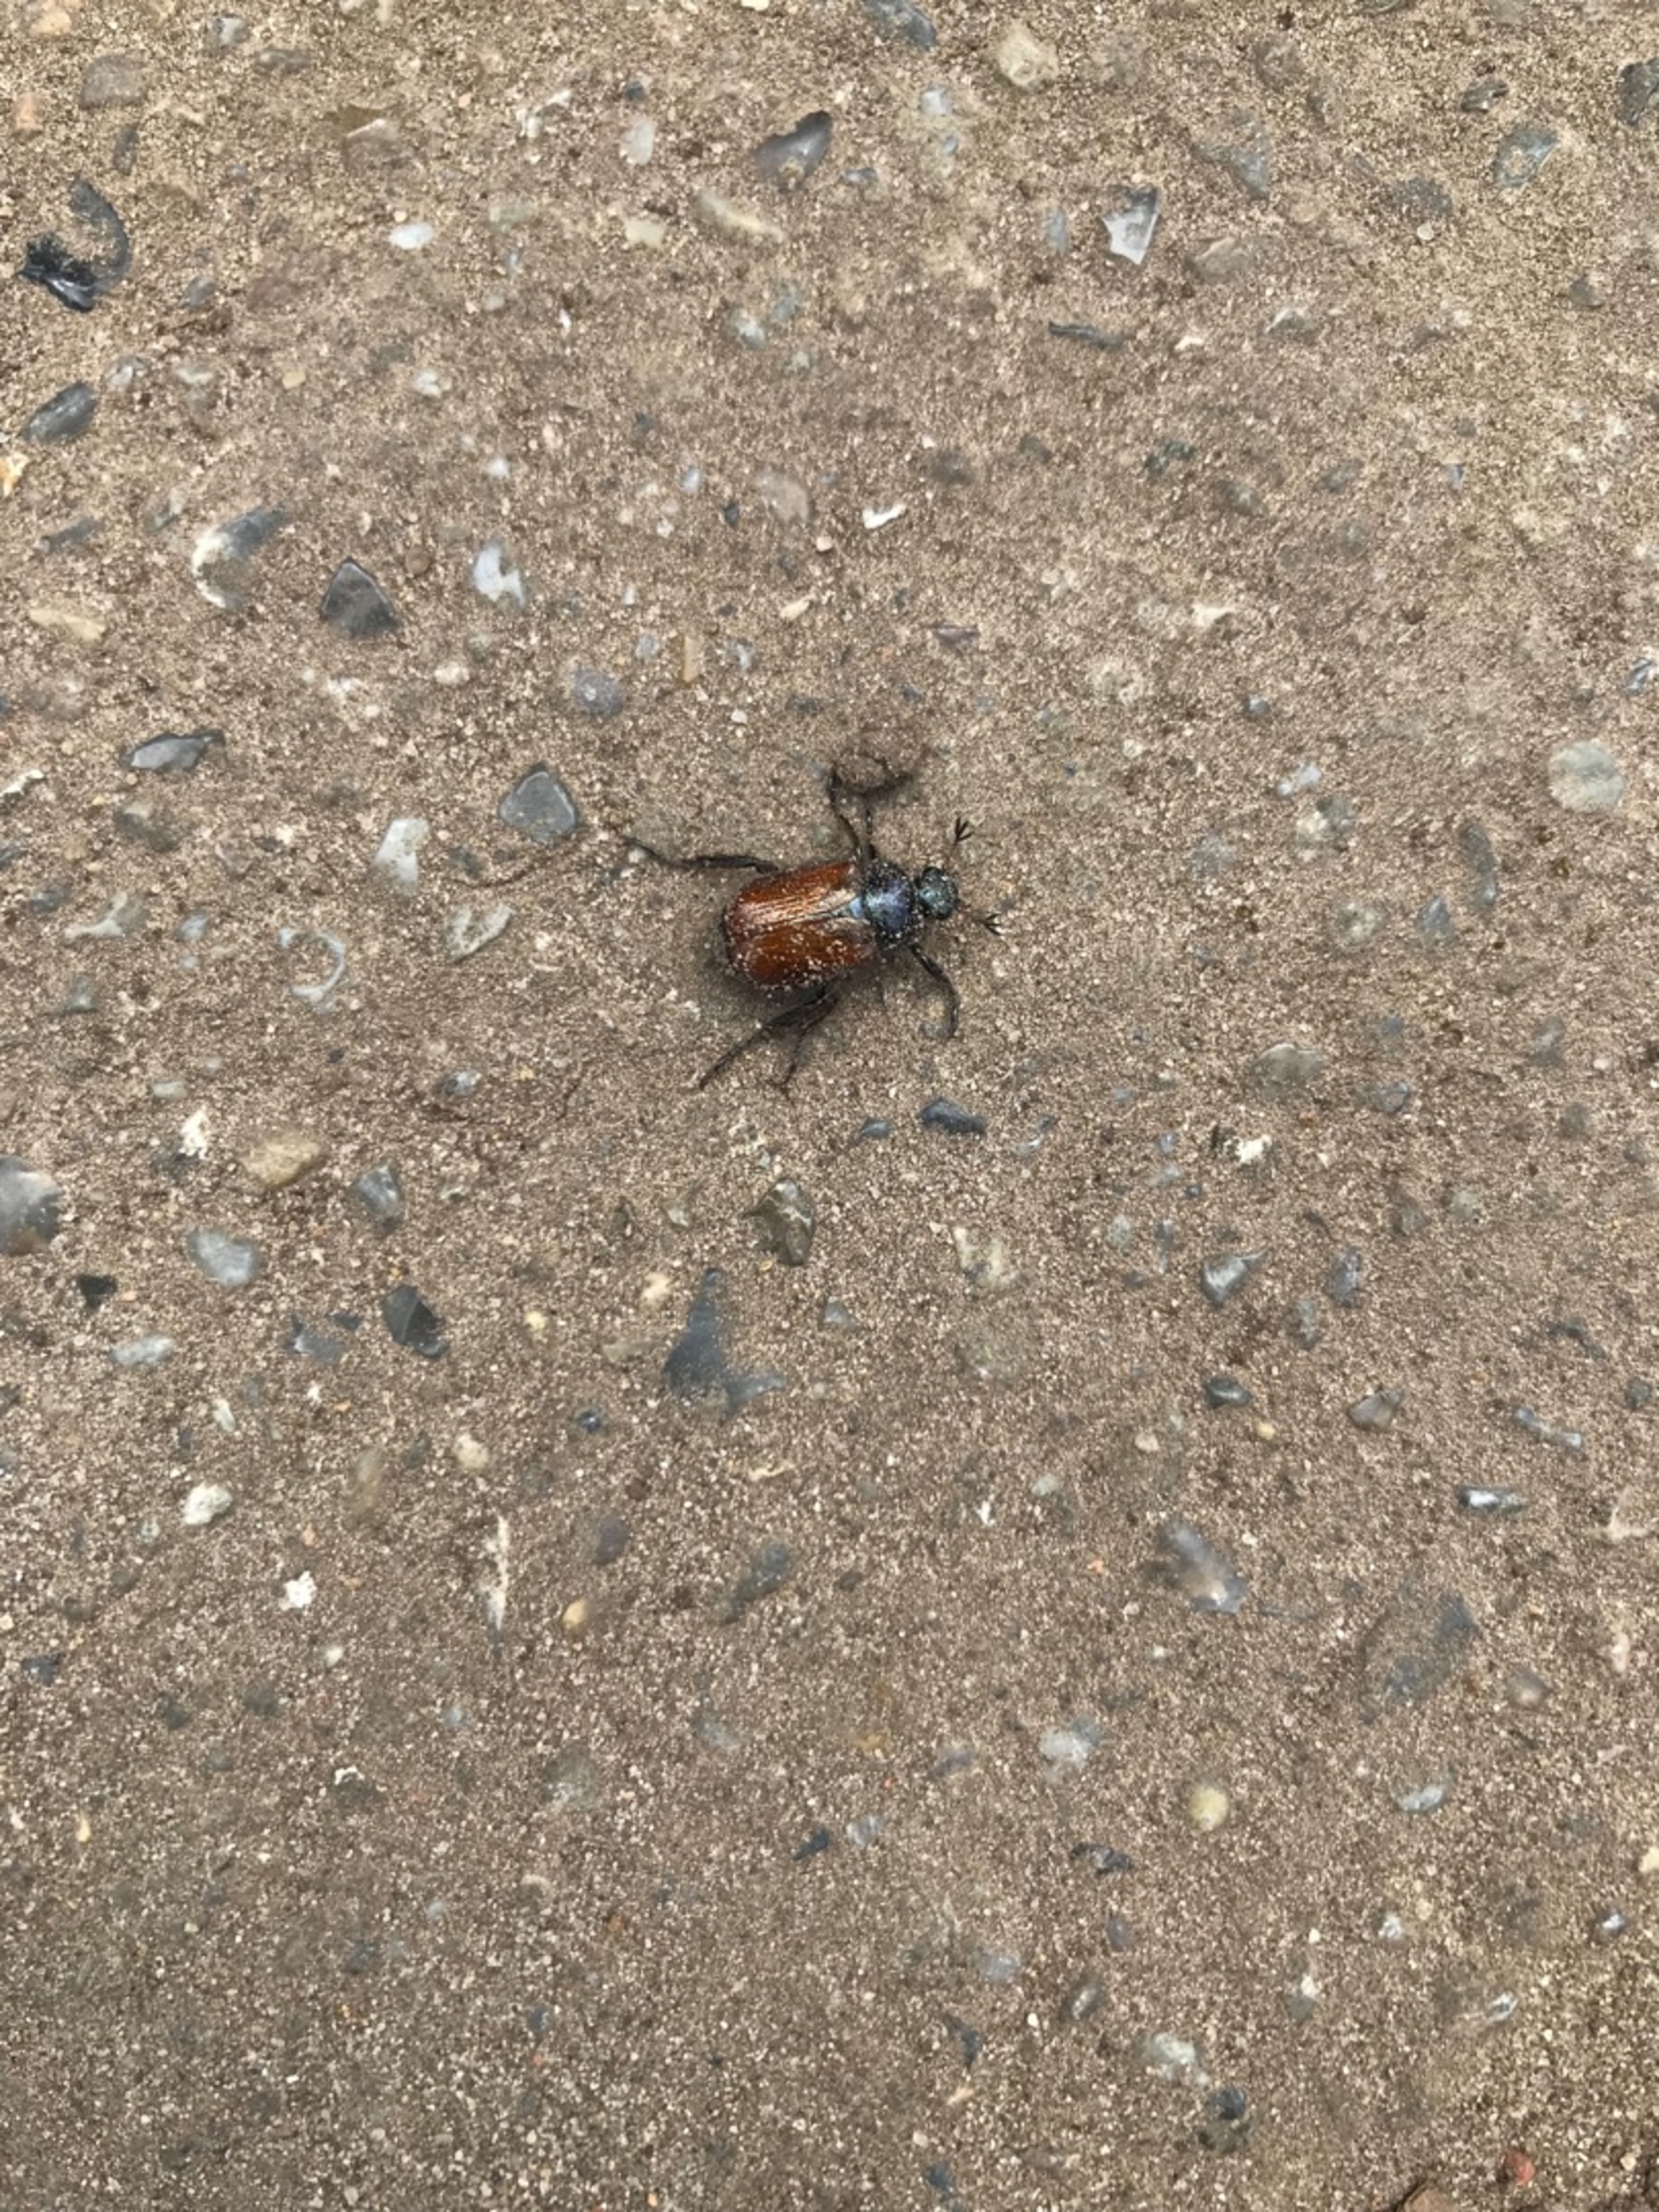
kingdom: Animalia
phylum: Arthropoda
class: Insecta
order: Coleoptera
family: Scarabaeidae
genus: Phyllopertha
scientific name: Phyllopertha horticola
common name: Gåsebille
